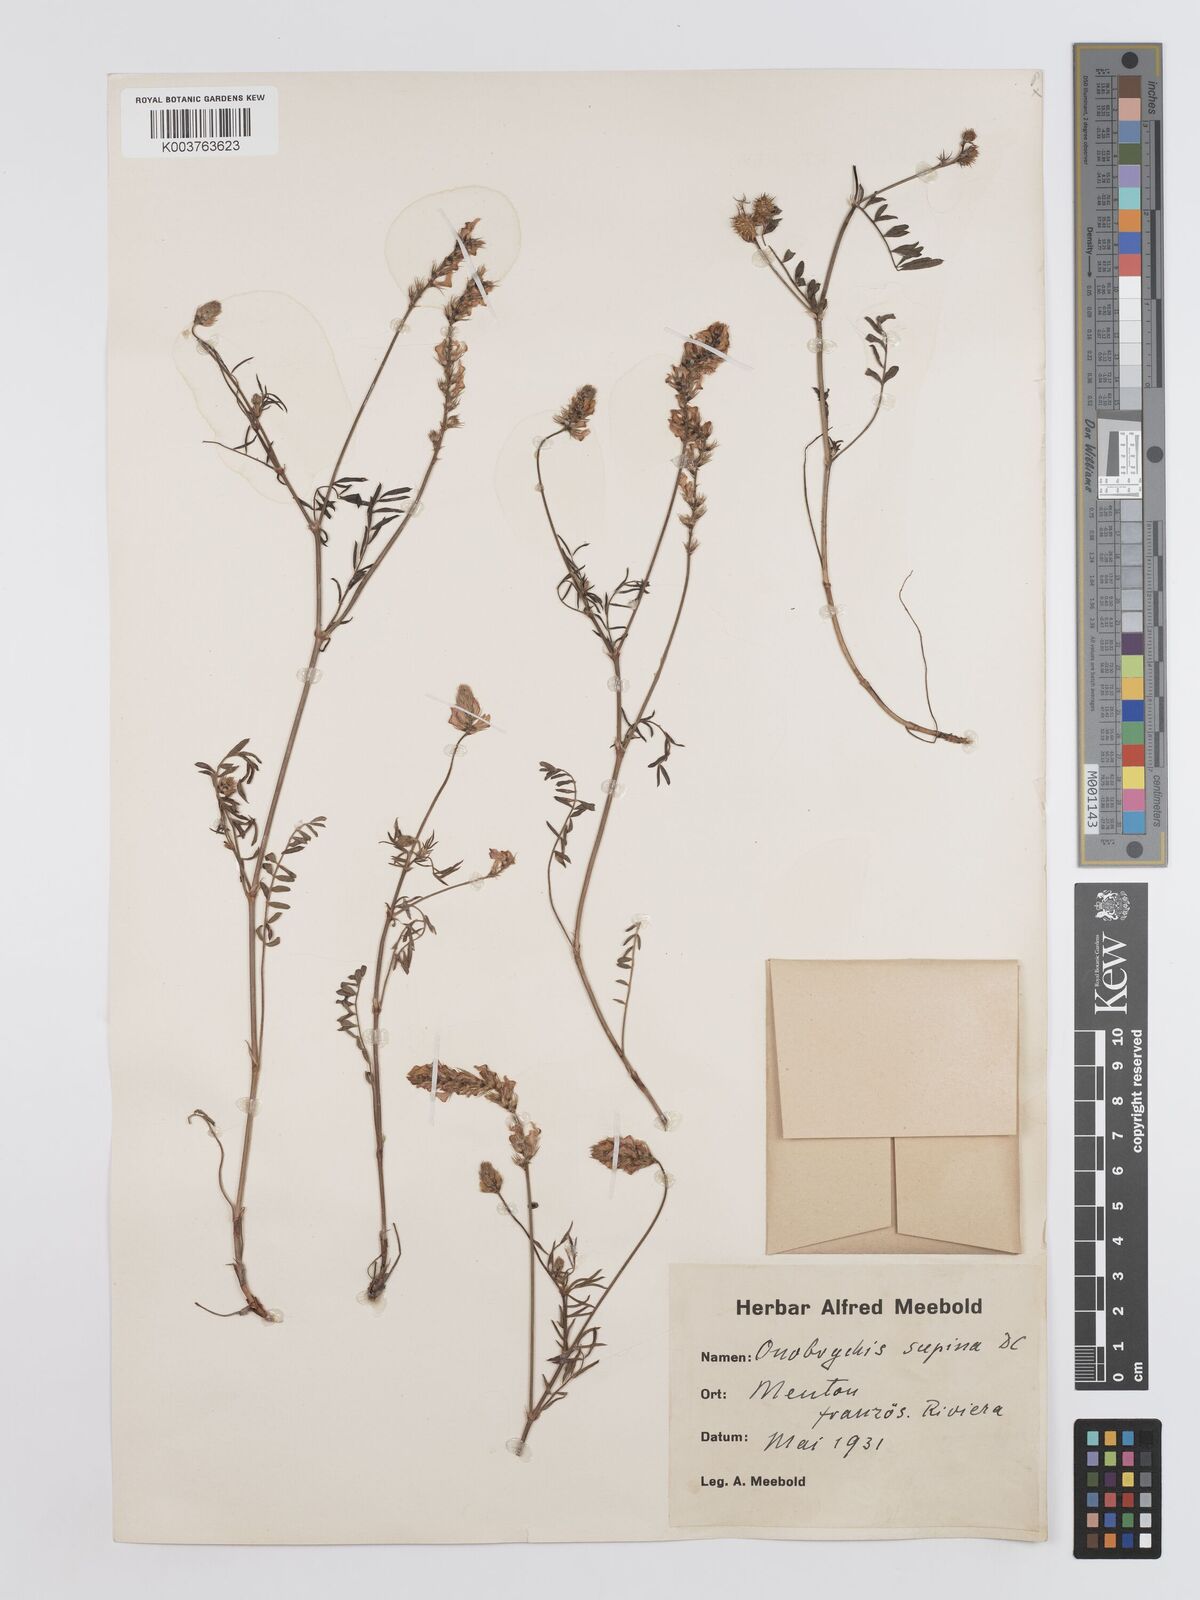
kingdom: Plantae
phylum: Tracheophyta
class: Magnoliopsida
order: Fabales
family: Fabaceae
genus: Onobrychis
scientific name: Onobrychis supina
